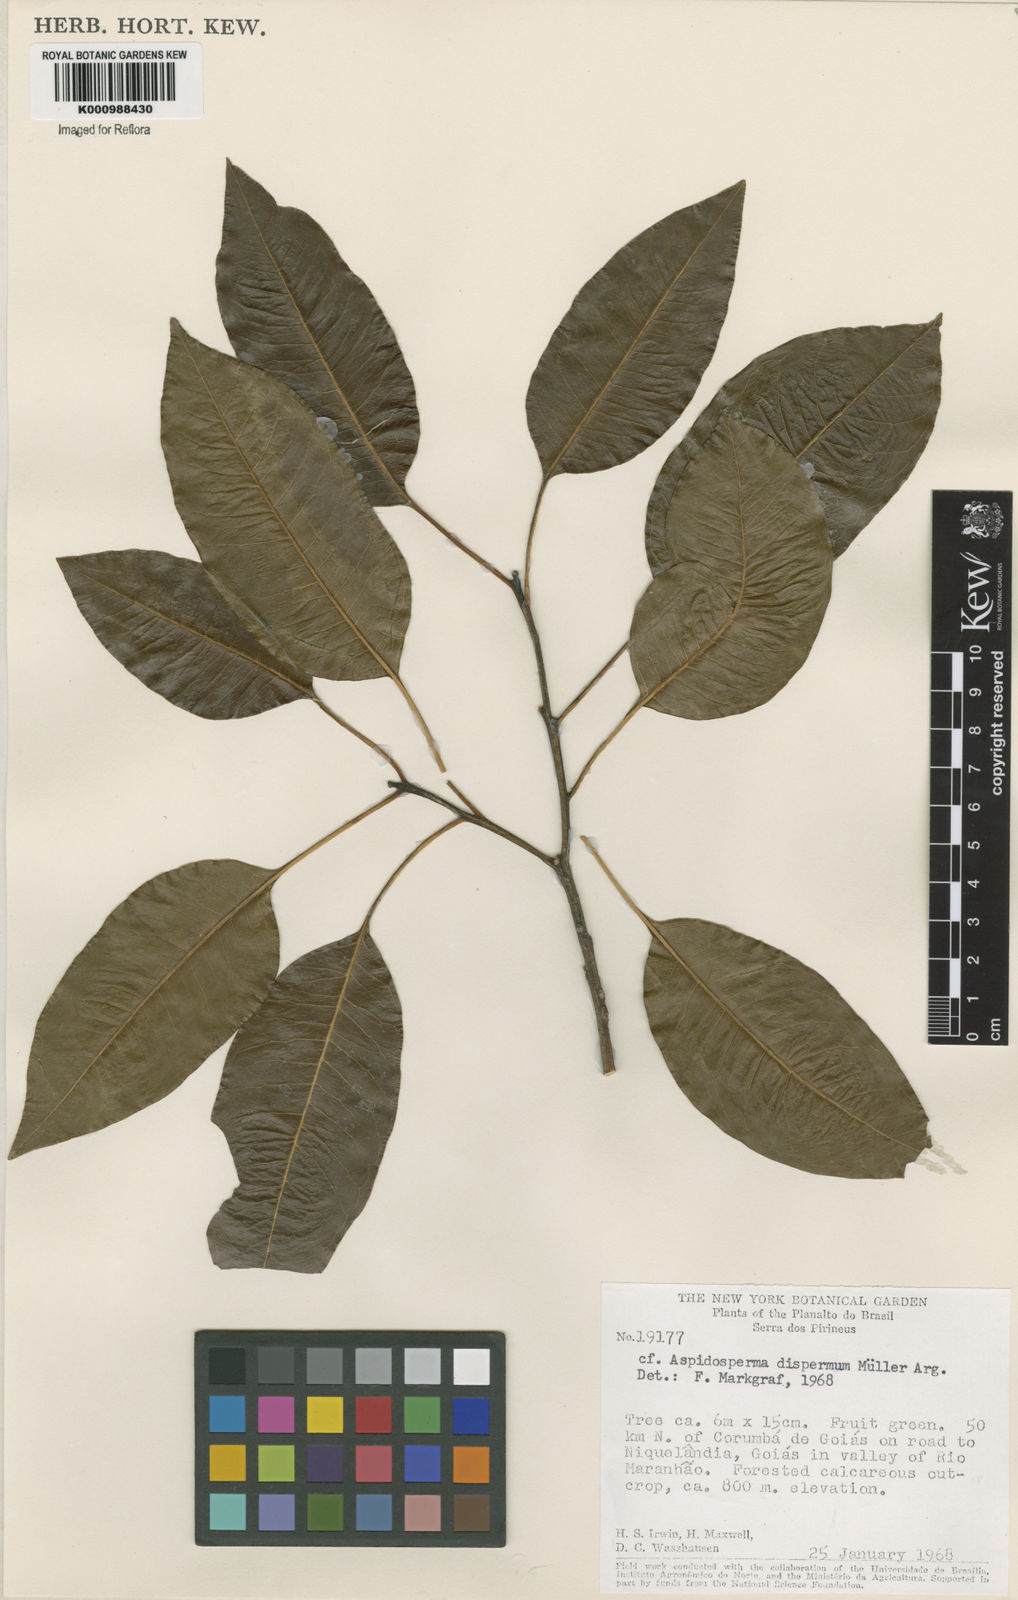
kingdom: Plantae
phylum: Tracheophyta
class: Magnoliopsida
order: Gentianales
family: Apocynaceae
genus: Aspidosperma
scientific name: Aspidosperma
